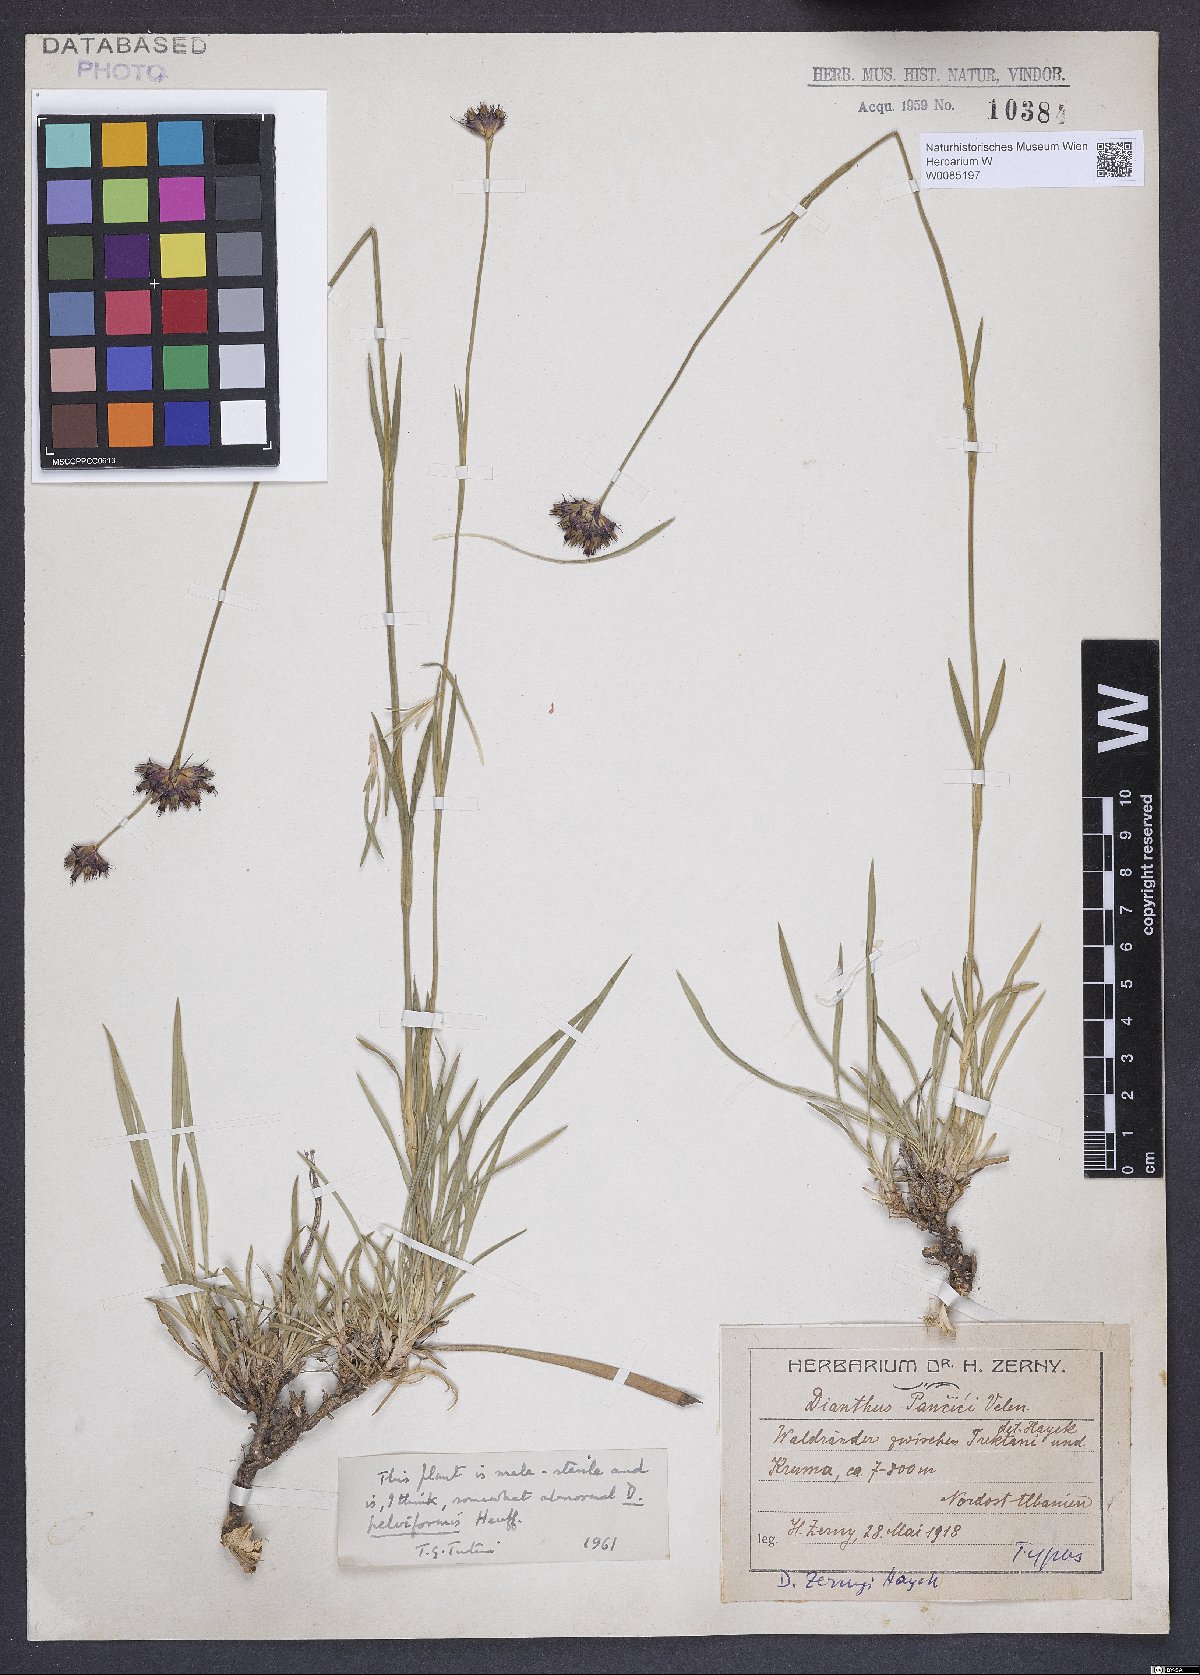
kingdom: Plantae
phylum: Tracheophyta
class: Magnoliopsida
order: Caryophyllales
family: Caryophyllaceae
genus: Dianthus
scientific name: Dianthus pelviformis
